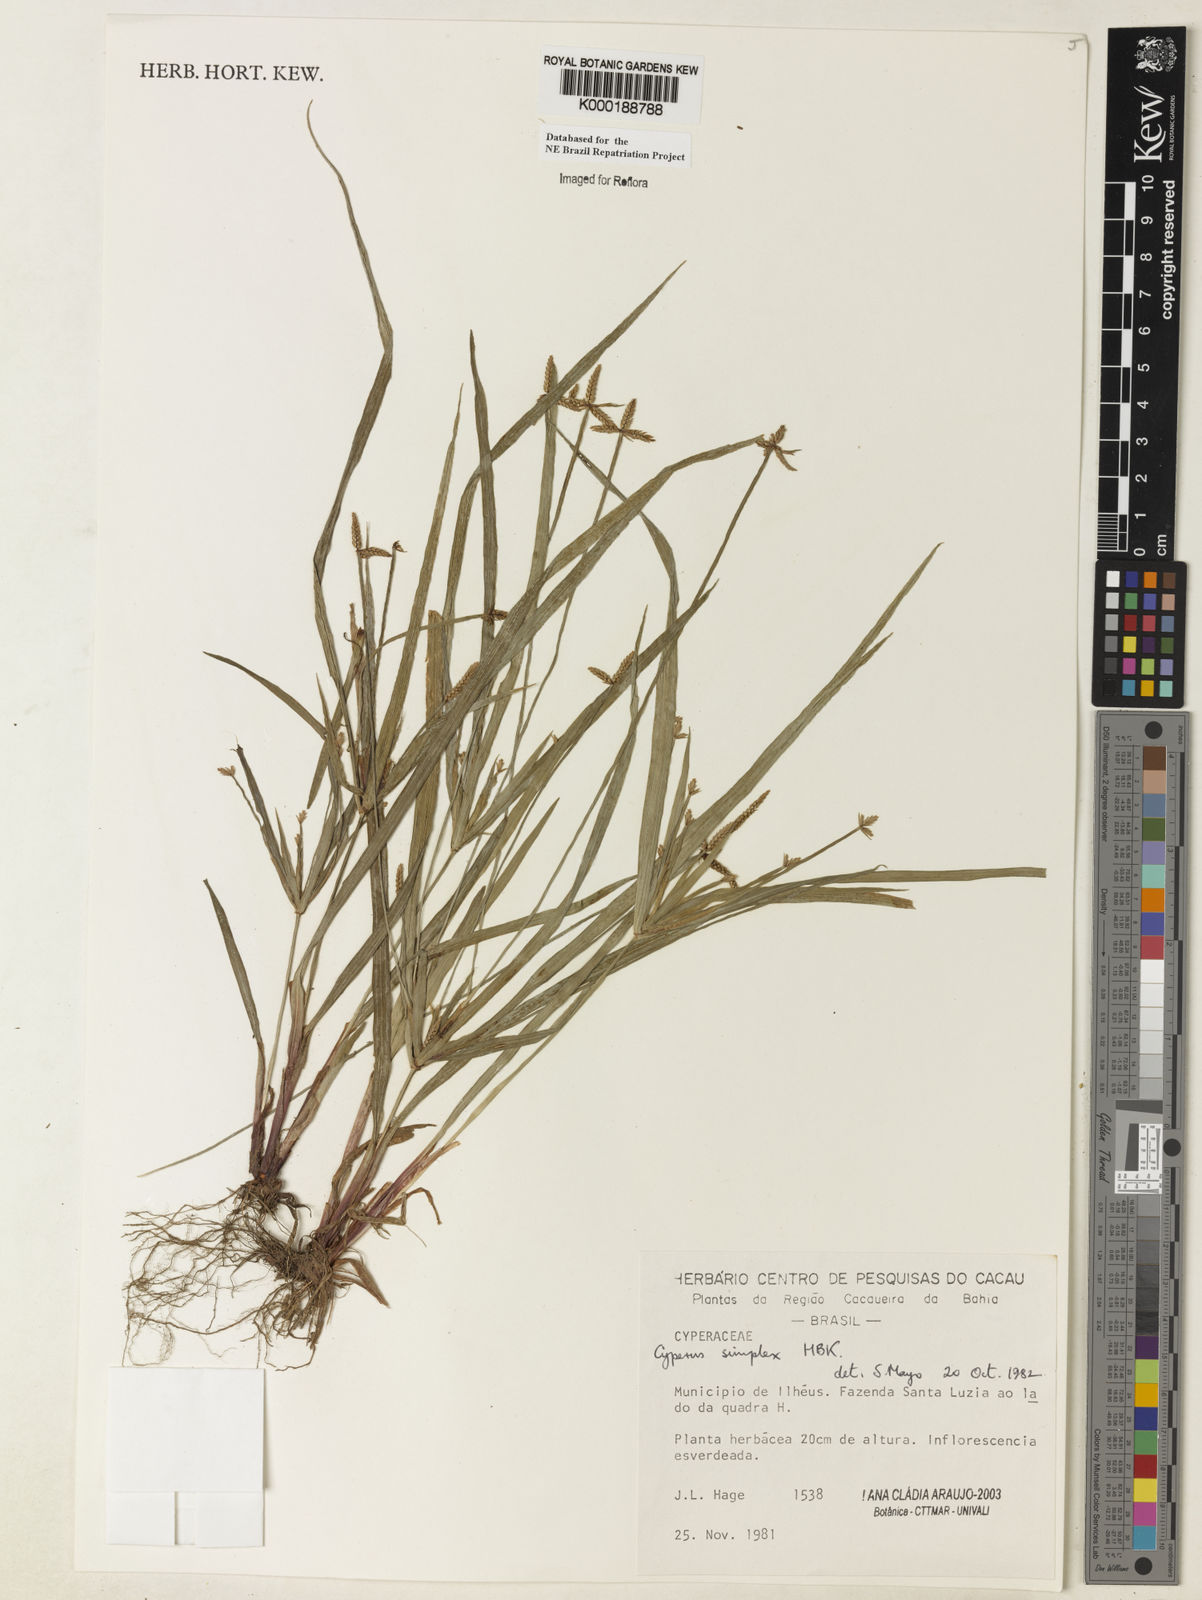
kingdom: Plantae
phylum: Tracheophyta
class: Liliopsida
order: Poales
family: Cyperaceae
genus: Cyperus
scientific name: Cyperus simplex
